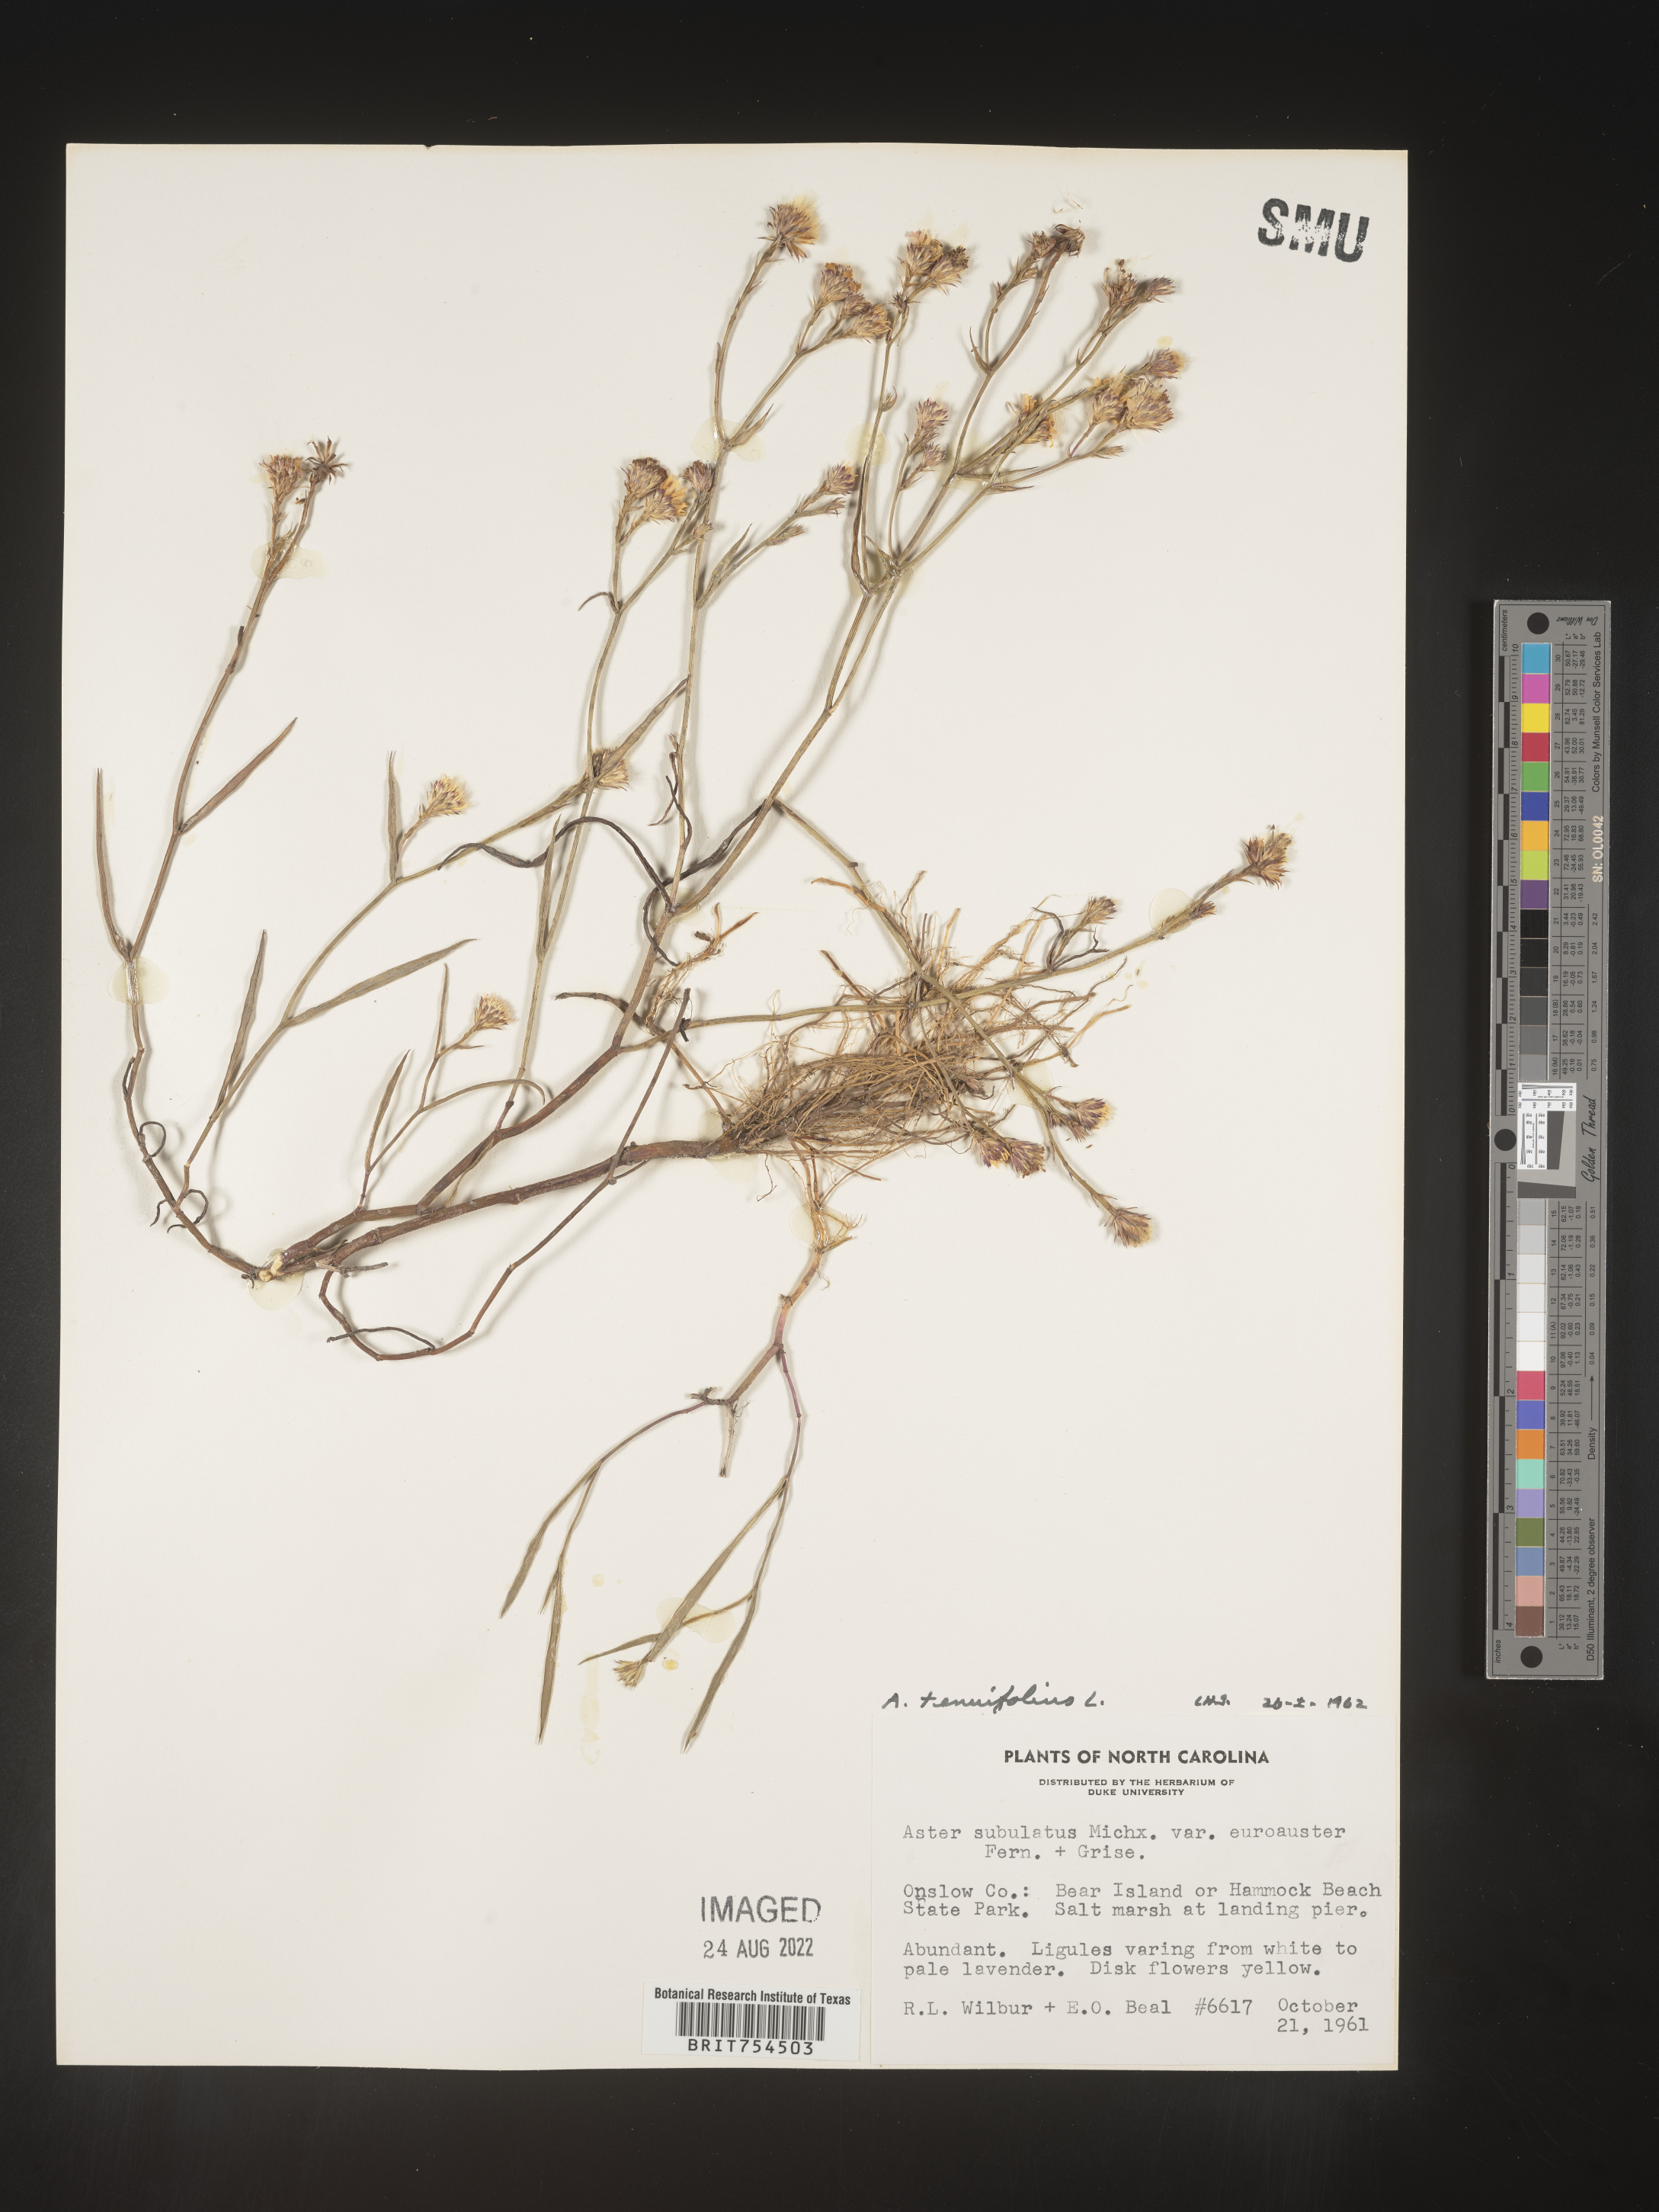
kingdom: Plantae
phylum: Tracheophyta
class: Magnoliopsida
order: Asterales
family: Asteraceae
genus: Symphyotrichum
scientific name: Symphyotrichum tenuifolium
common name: Perennial salt-marsh aster
